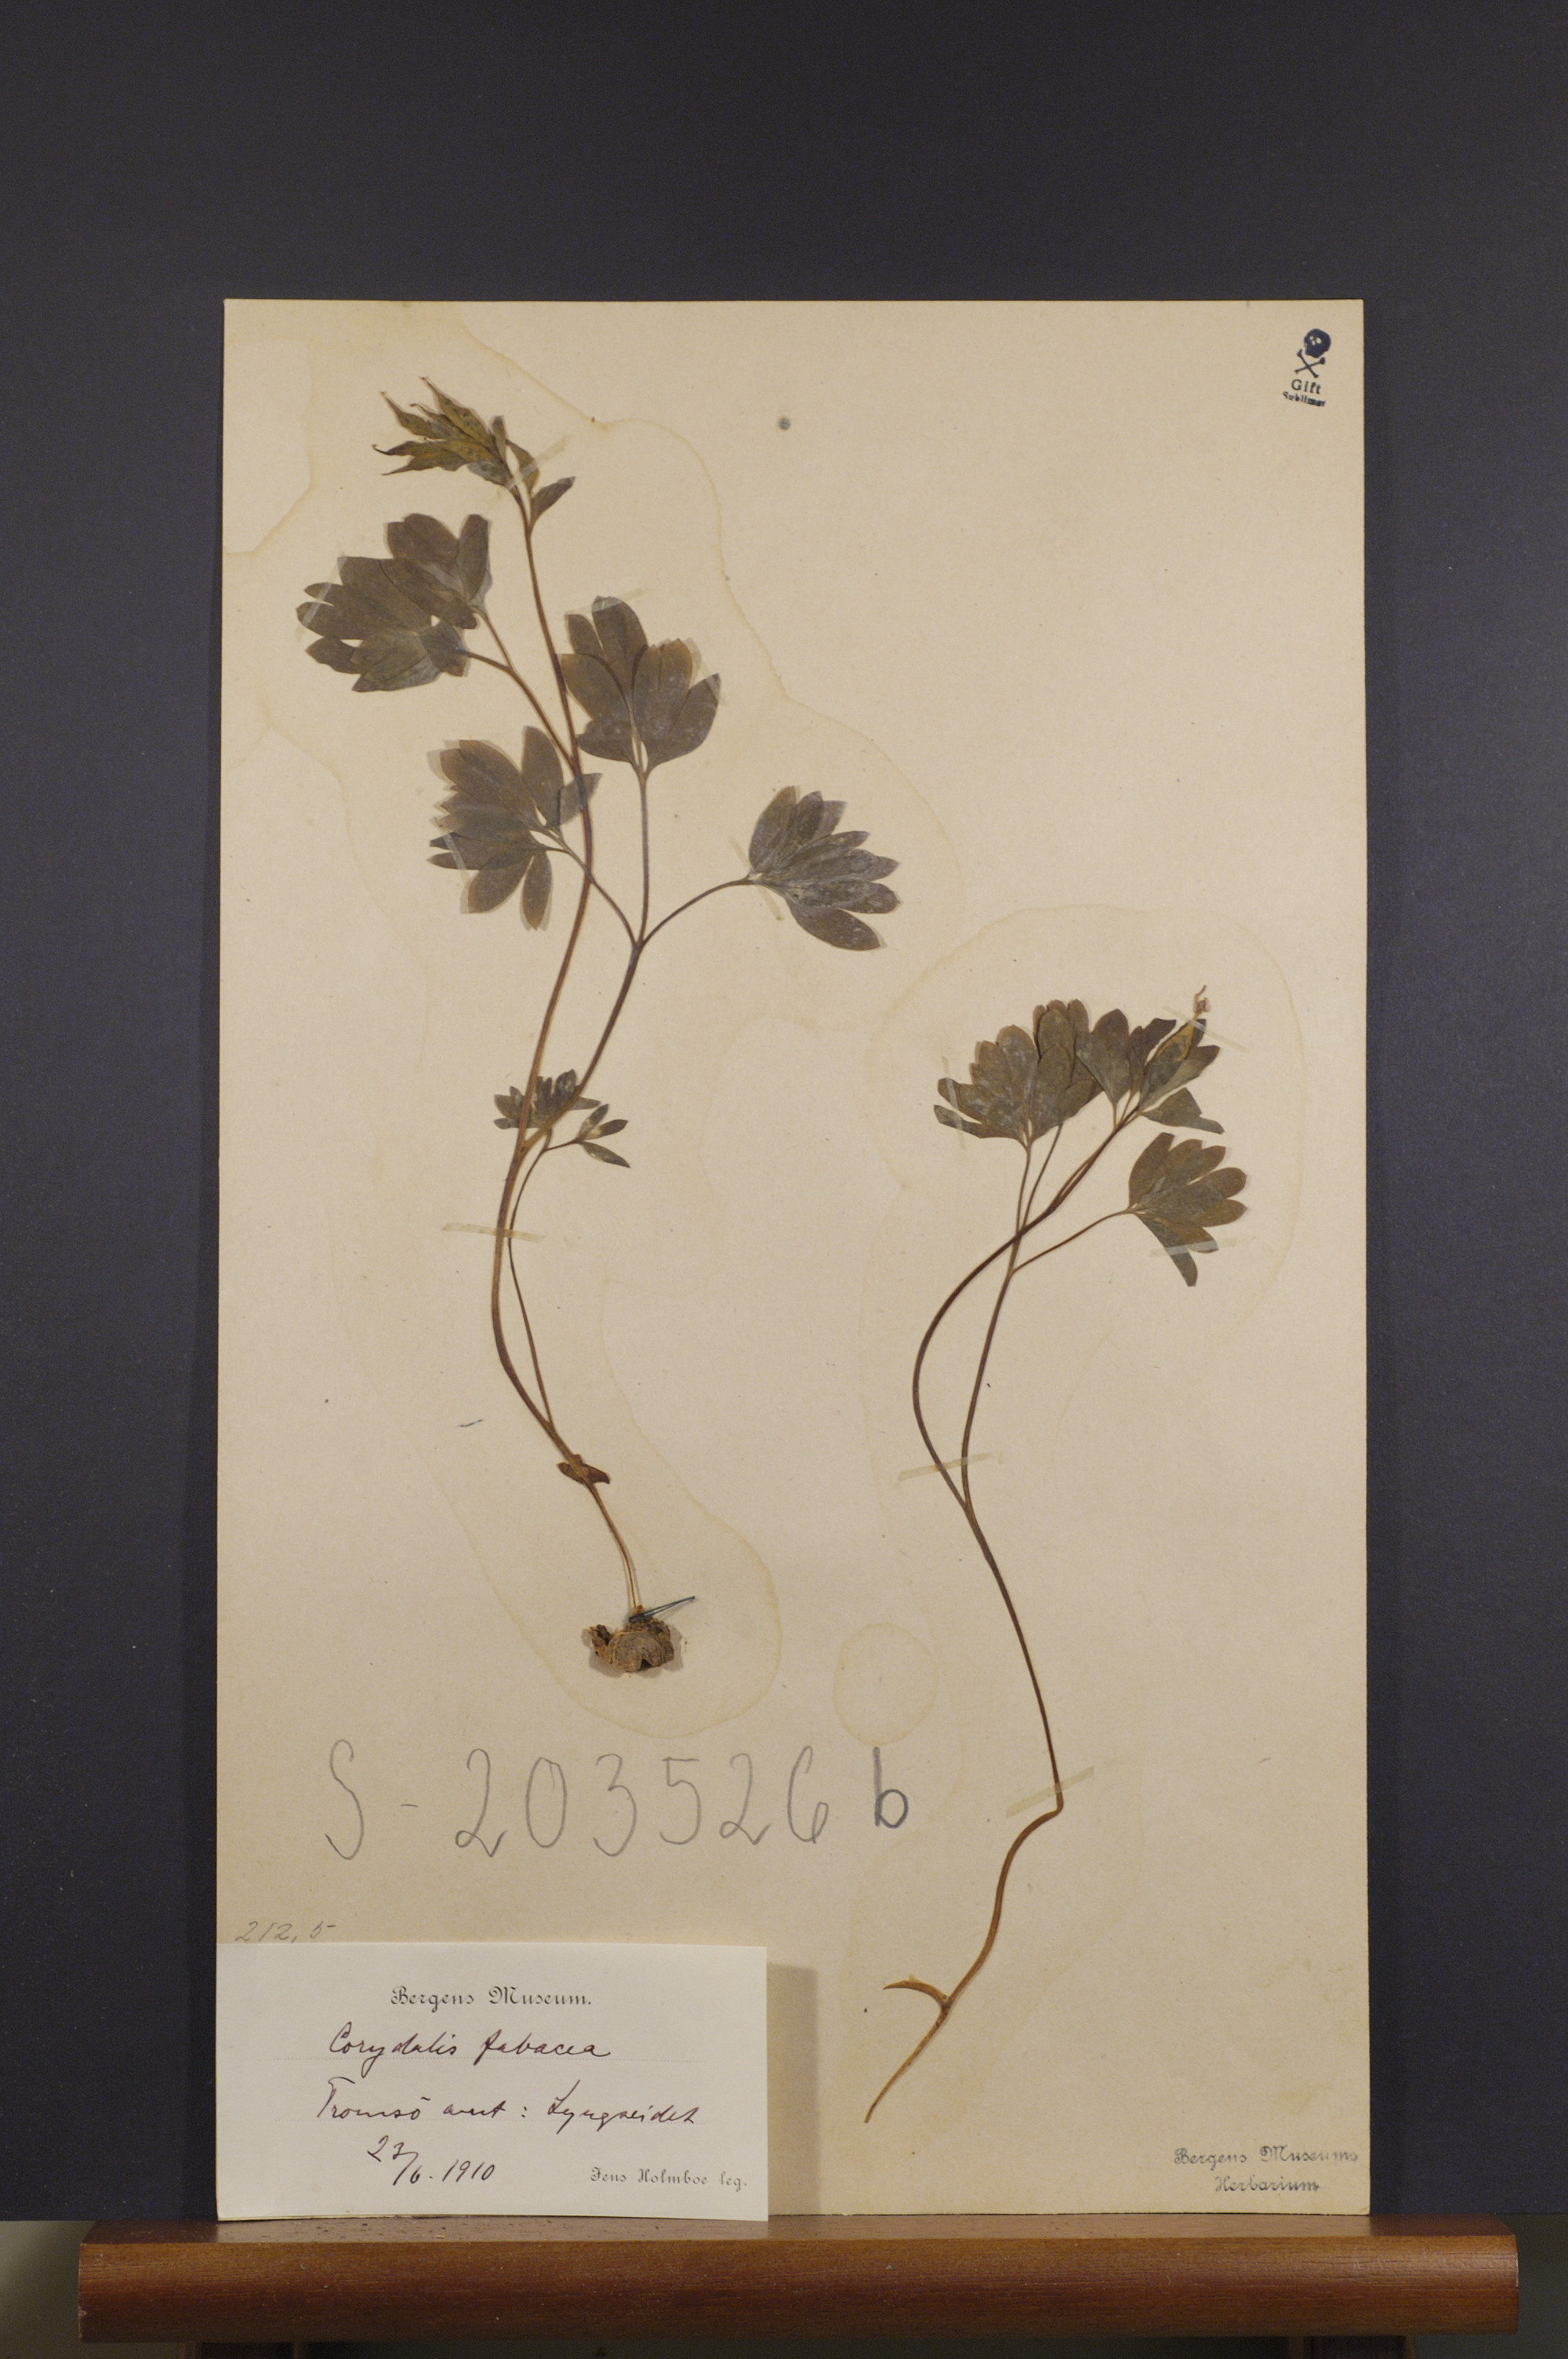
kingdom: Plantae
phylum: Tracheophyta
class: Magnoliopsida
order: Ranunculales
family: Papaveraceae
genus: Corydalis
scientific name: Corydalis intermedia
